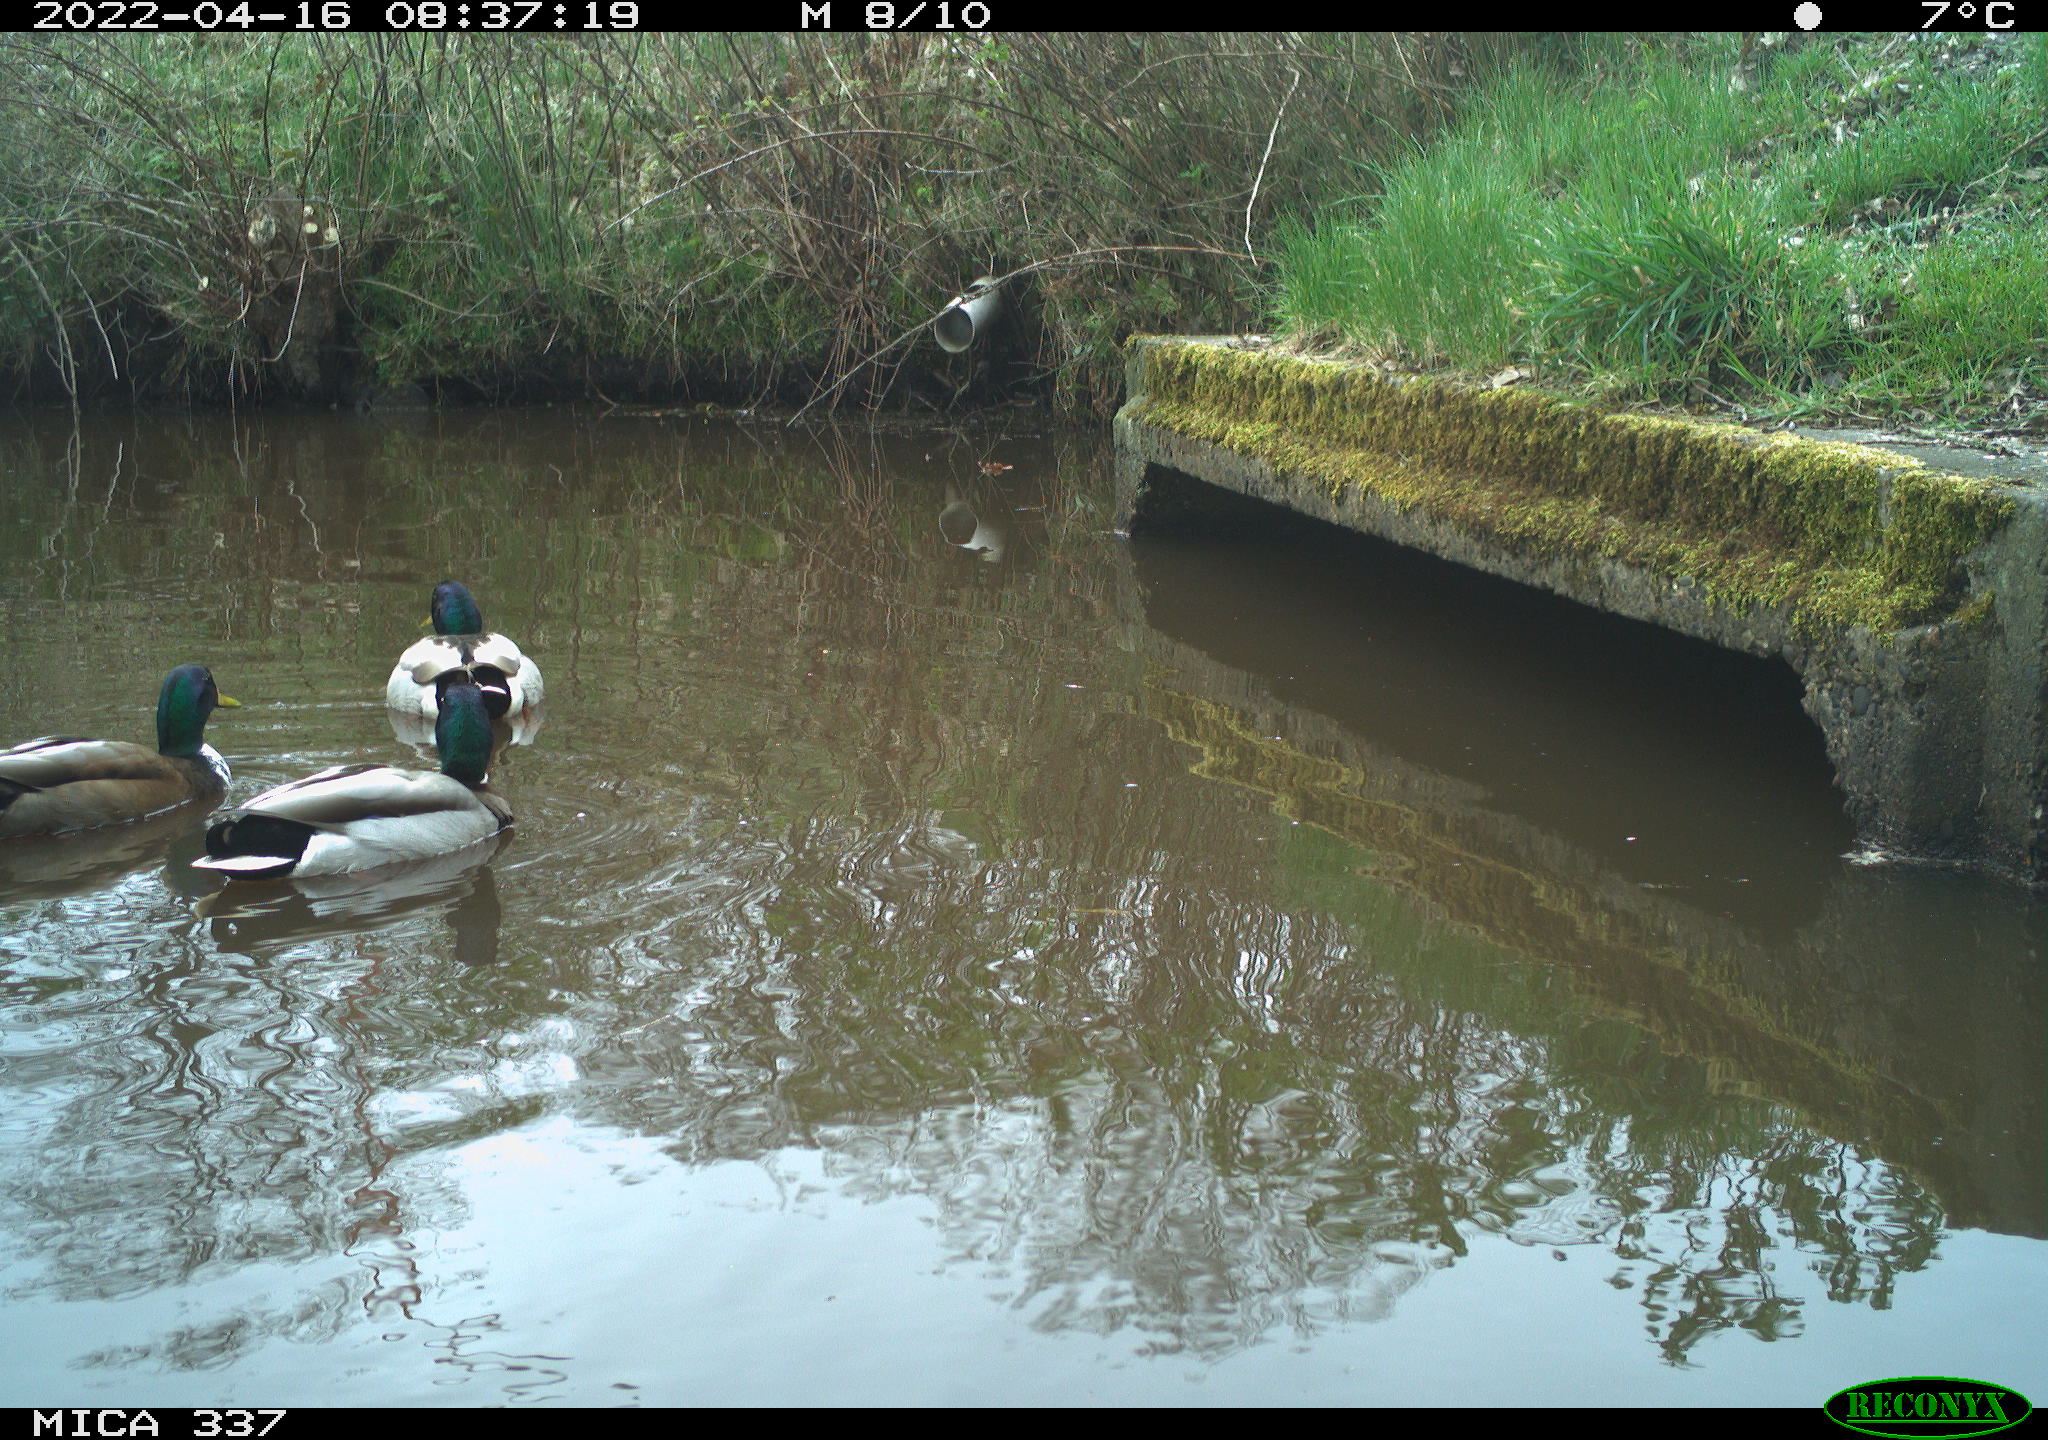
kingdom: Animalia
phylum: Chordata
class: Aves
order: Anseriformes
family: Anatidae
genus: Anas
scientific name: Anas platyrhynchos
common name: Mallard
